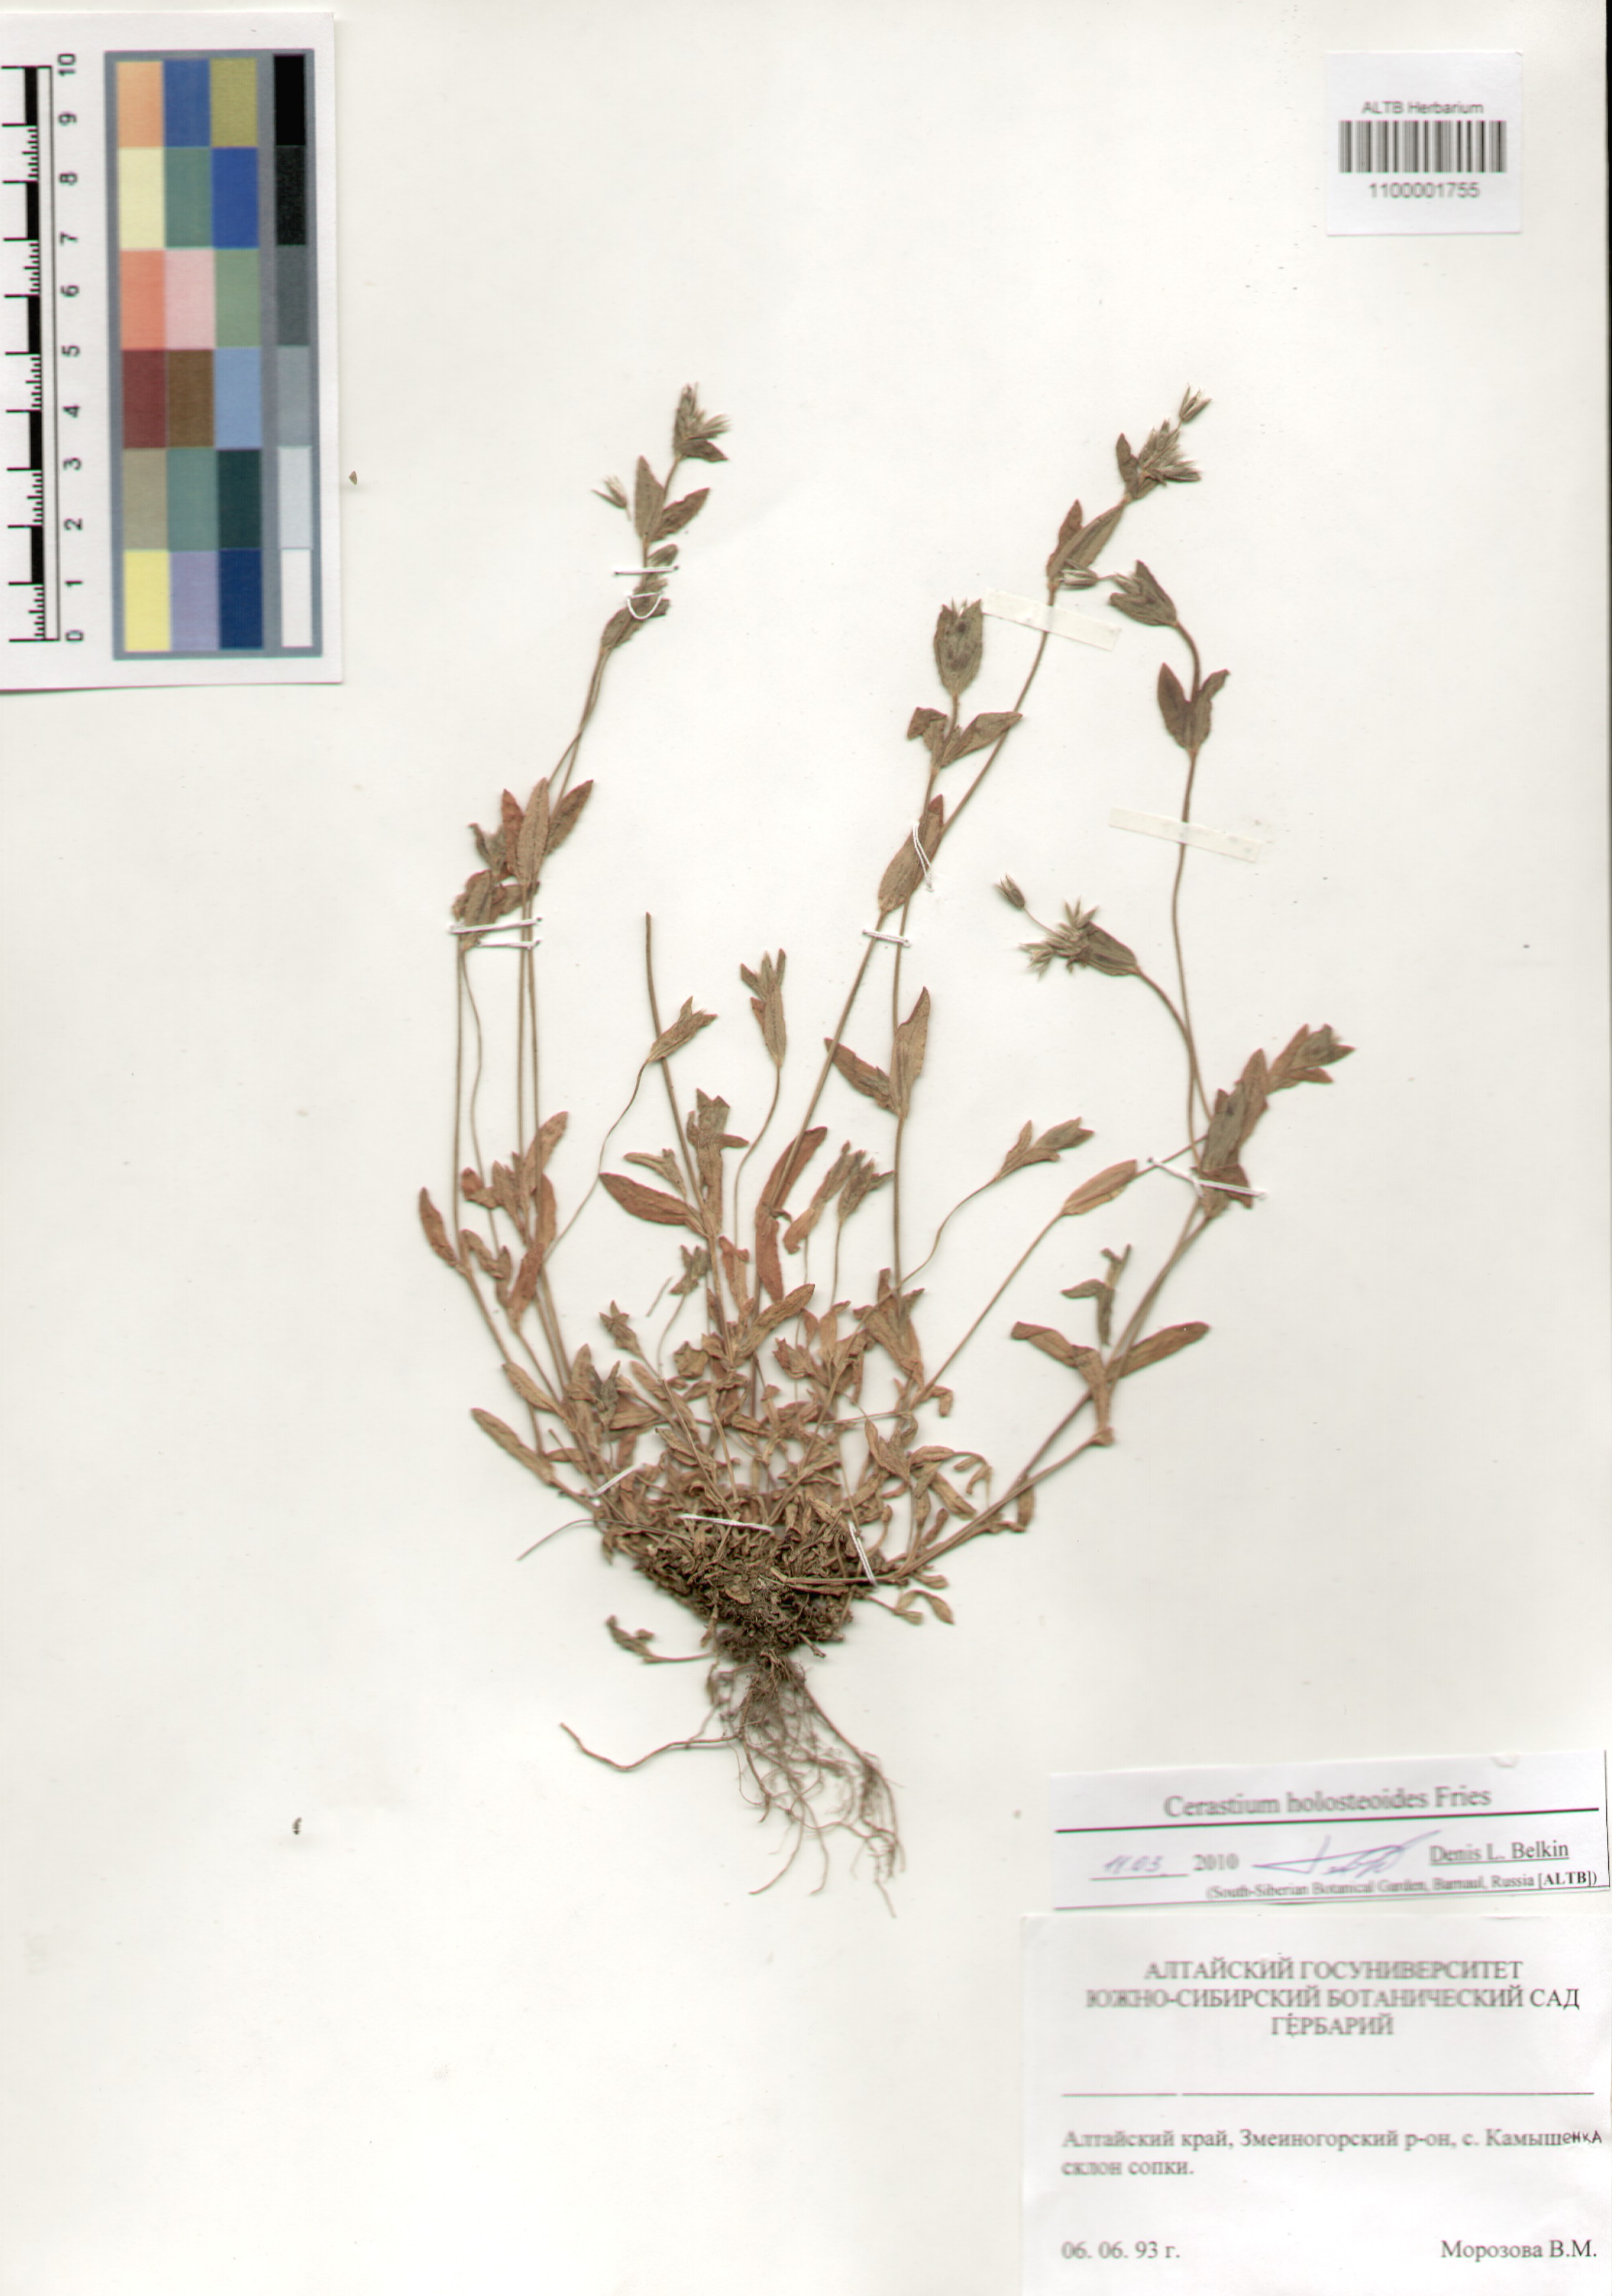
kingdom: Plantae
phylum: Tracheophyta
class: Magnoliopsida
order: Caryophyllales
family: Caryophyllaceae
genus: Cerastium
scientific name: Cerastium holosteoides
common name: Big chickweed
